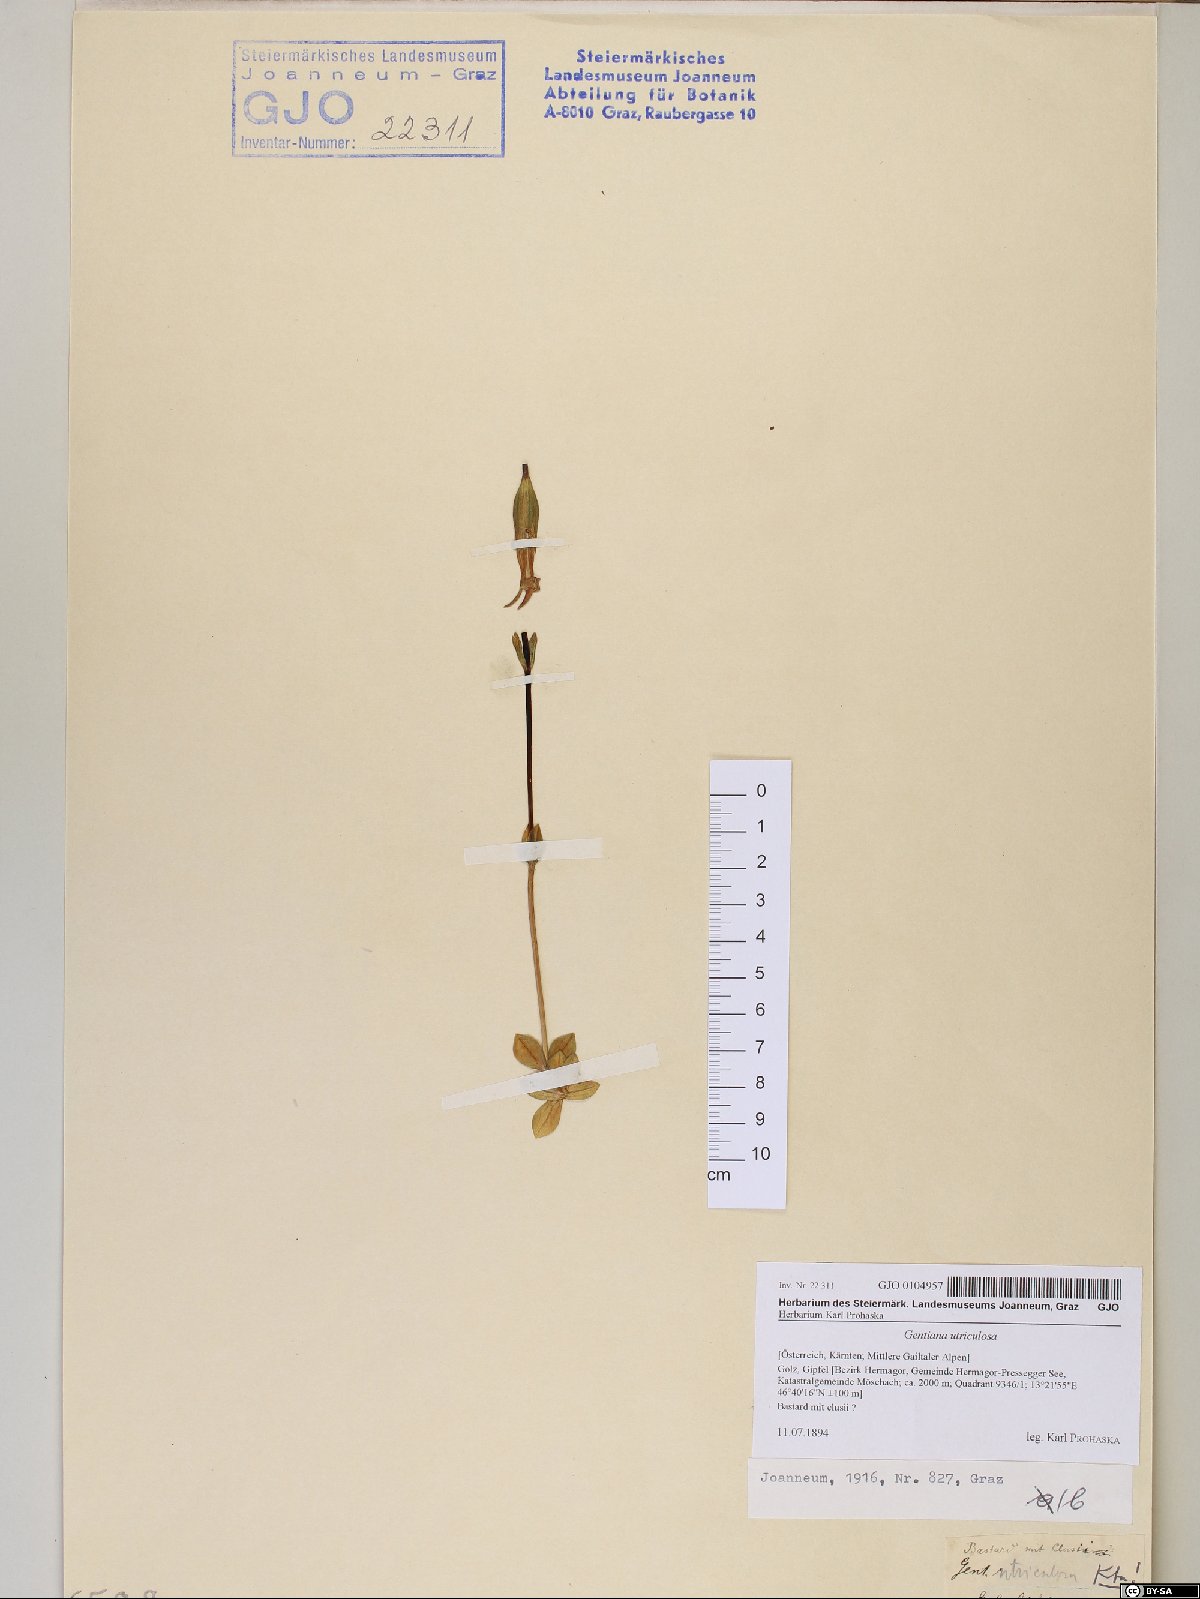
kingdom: Plantae
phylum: Tracheophyta
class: Magnoliopsida
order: Gentianales
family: Gentianaceae
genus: Gentiana
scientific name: Gentiana utriculosa
